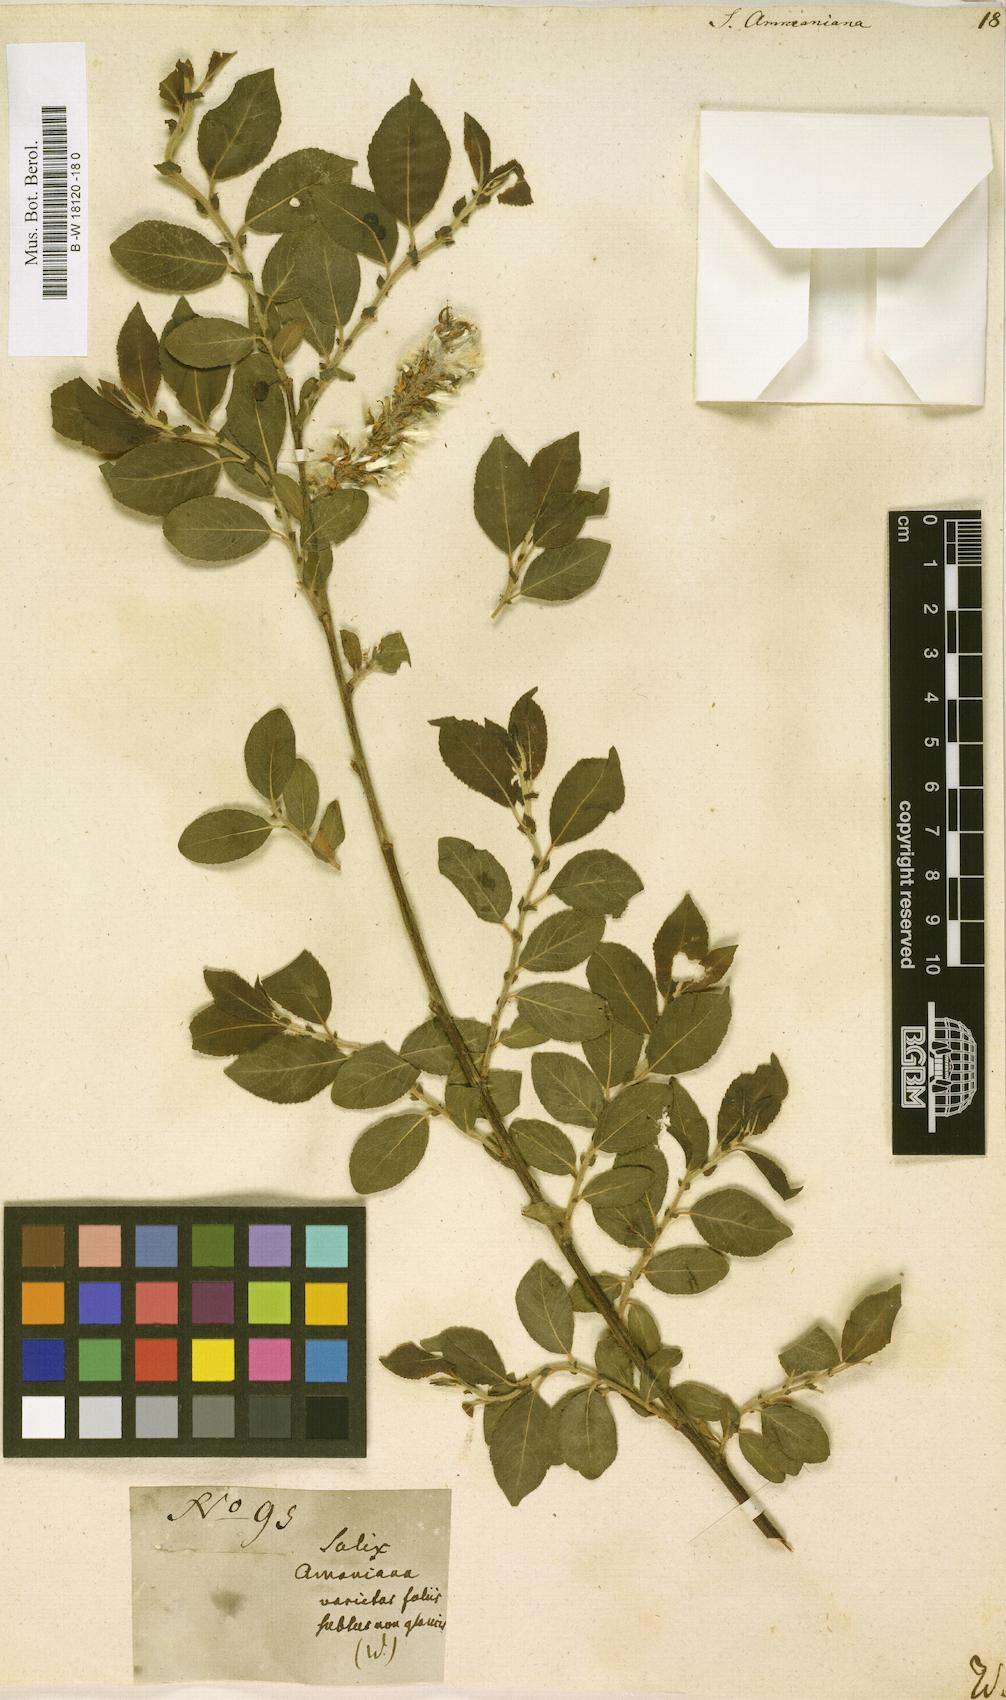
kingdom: Plantae
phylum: Tracheophyta
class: Magnoliopsida
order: Malpighiales
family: Salicaceae
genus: Salix
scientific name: Salix myrsinifolia
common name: Dark-leaved willow
